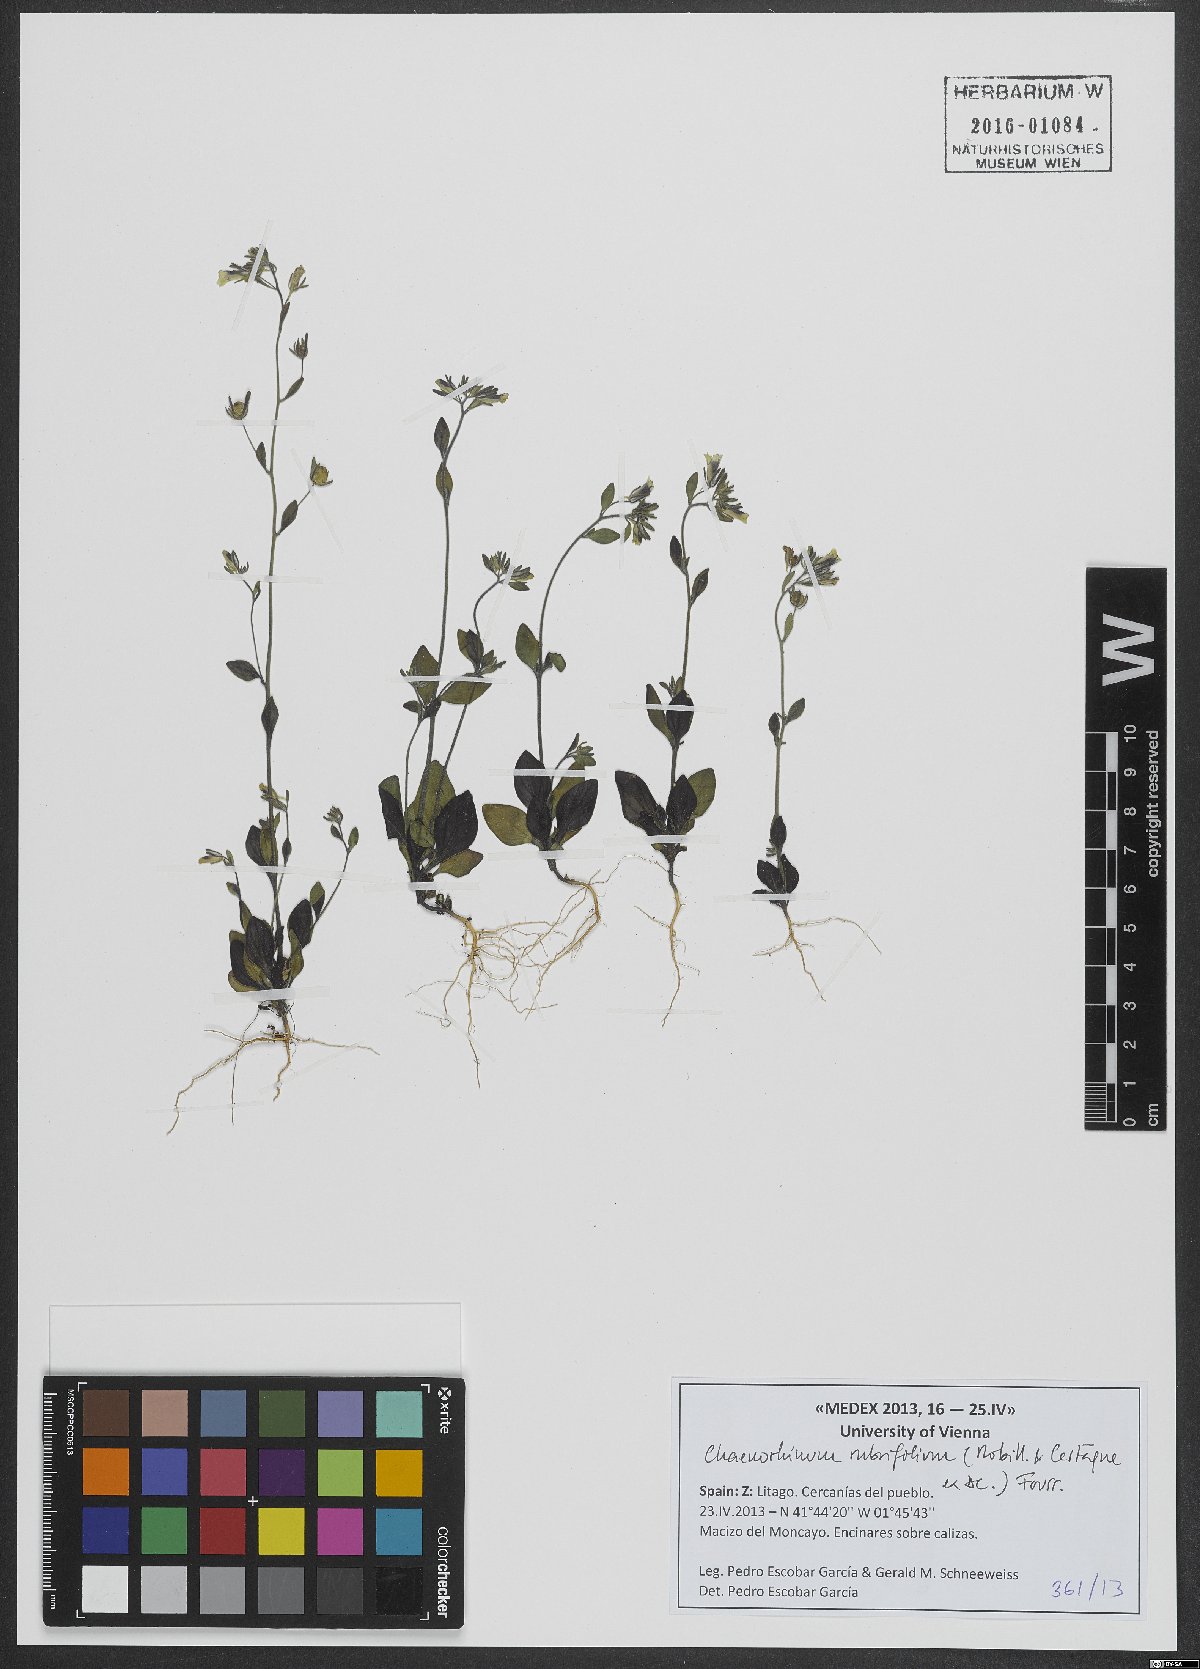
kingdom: Plantae
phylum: Tracheophyta
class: Magnoliopsida
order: Lamiales
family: Plantaginaceae
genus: Chaenorhinum
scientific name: Chaenorhinum rubrifolium
